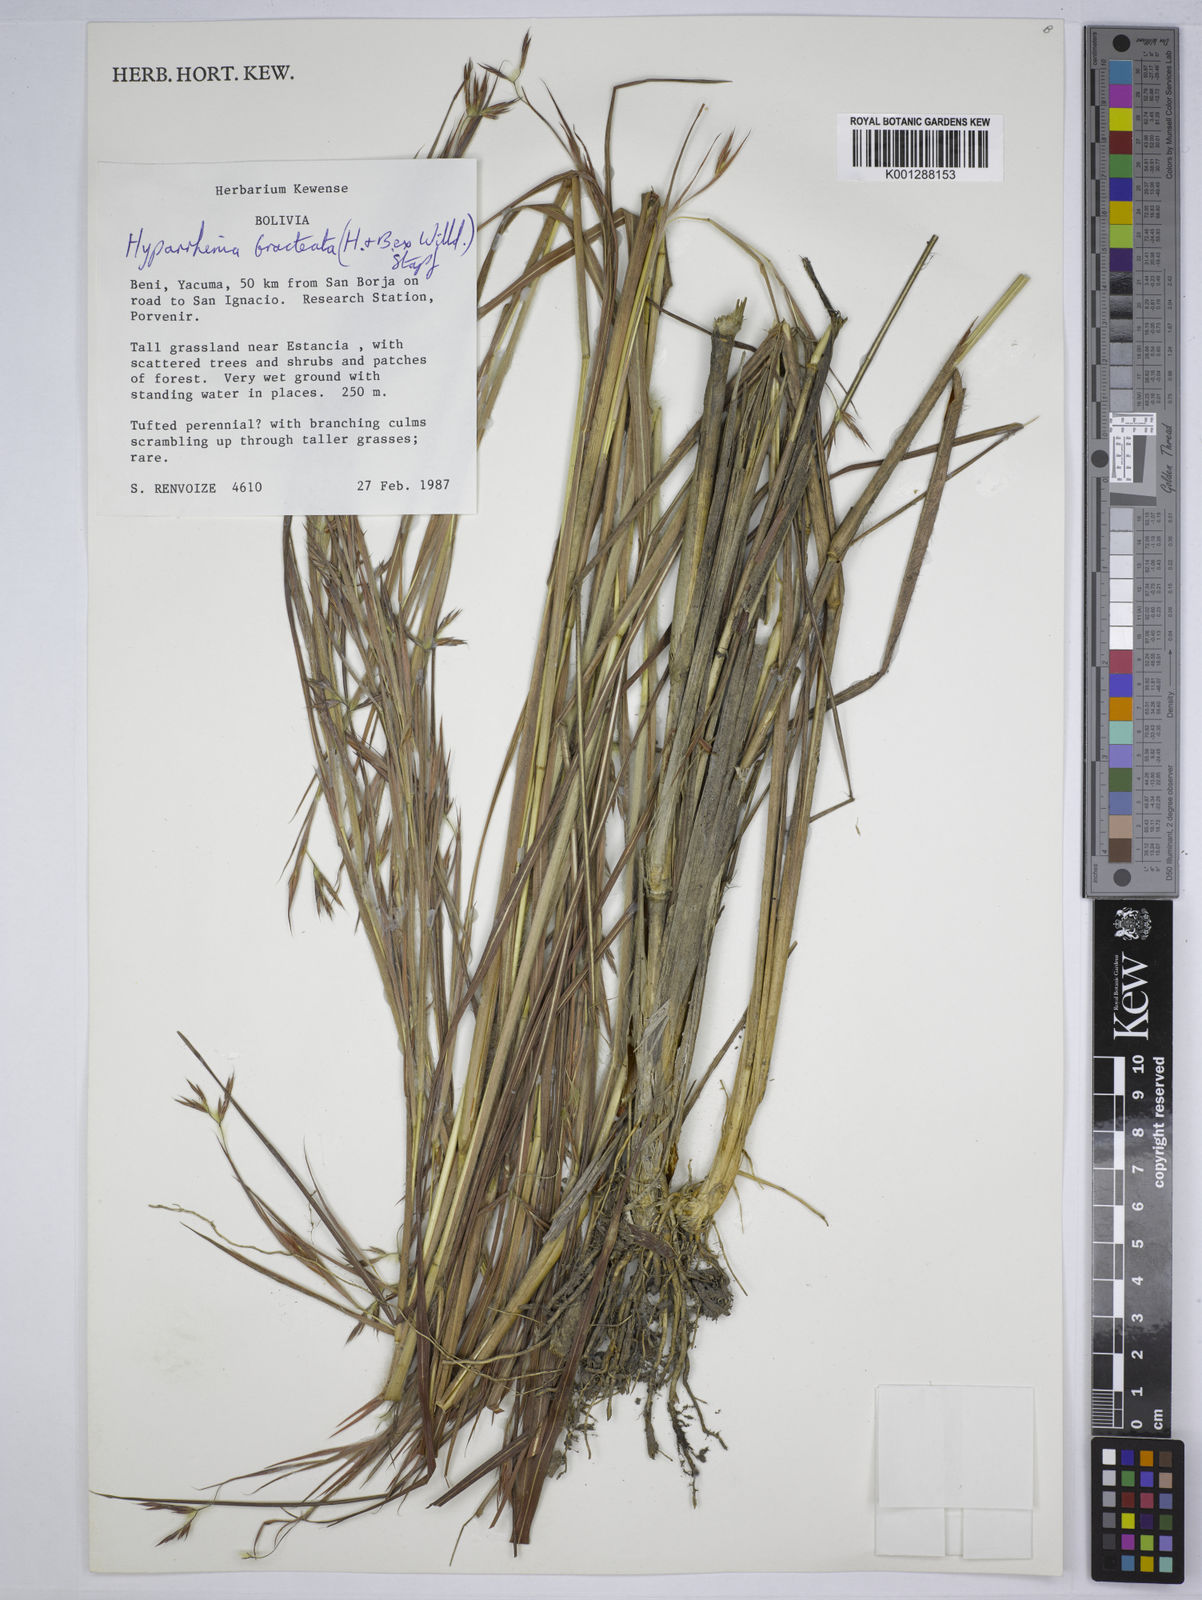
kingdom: Plantae
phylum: Tracheophyta
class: Liliopsida
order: Poales
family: Poaceae
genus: Hyparrhenia
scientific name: Hyparrhenia bracteata
